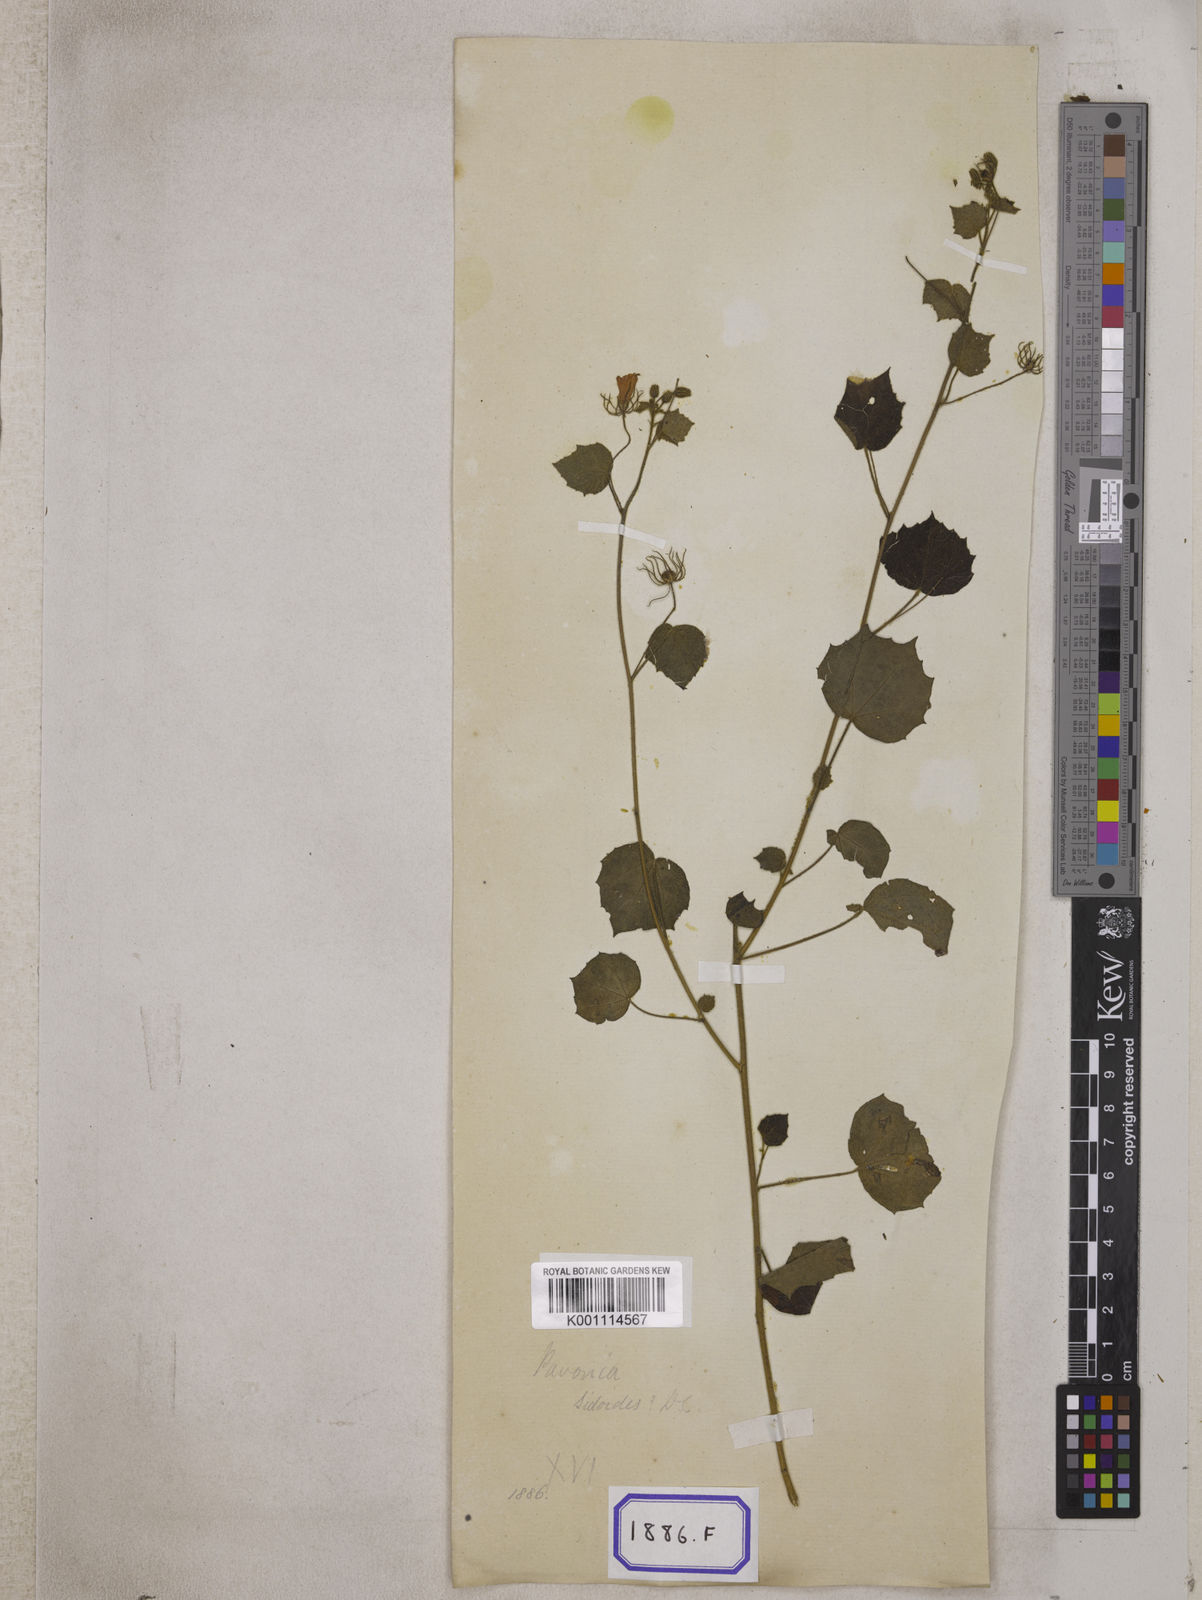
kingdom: Plantae
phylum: Tracheophyta
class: Magnoliopsida
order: Malvales
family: Malvaceae
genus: Pavonia
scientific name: Pavonia zeylonica
